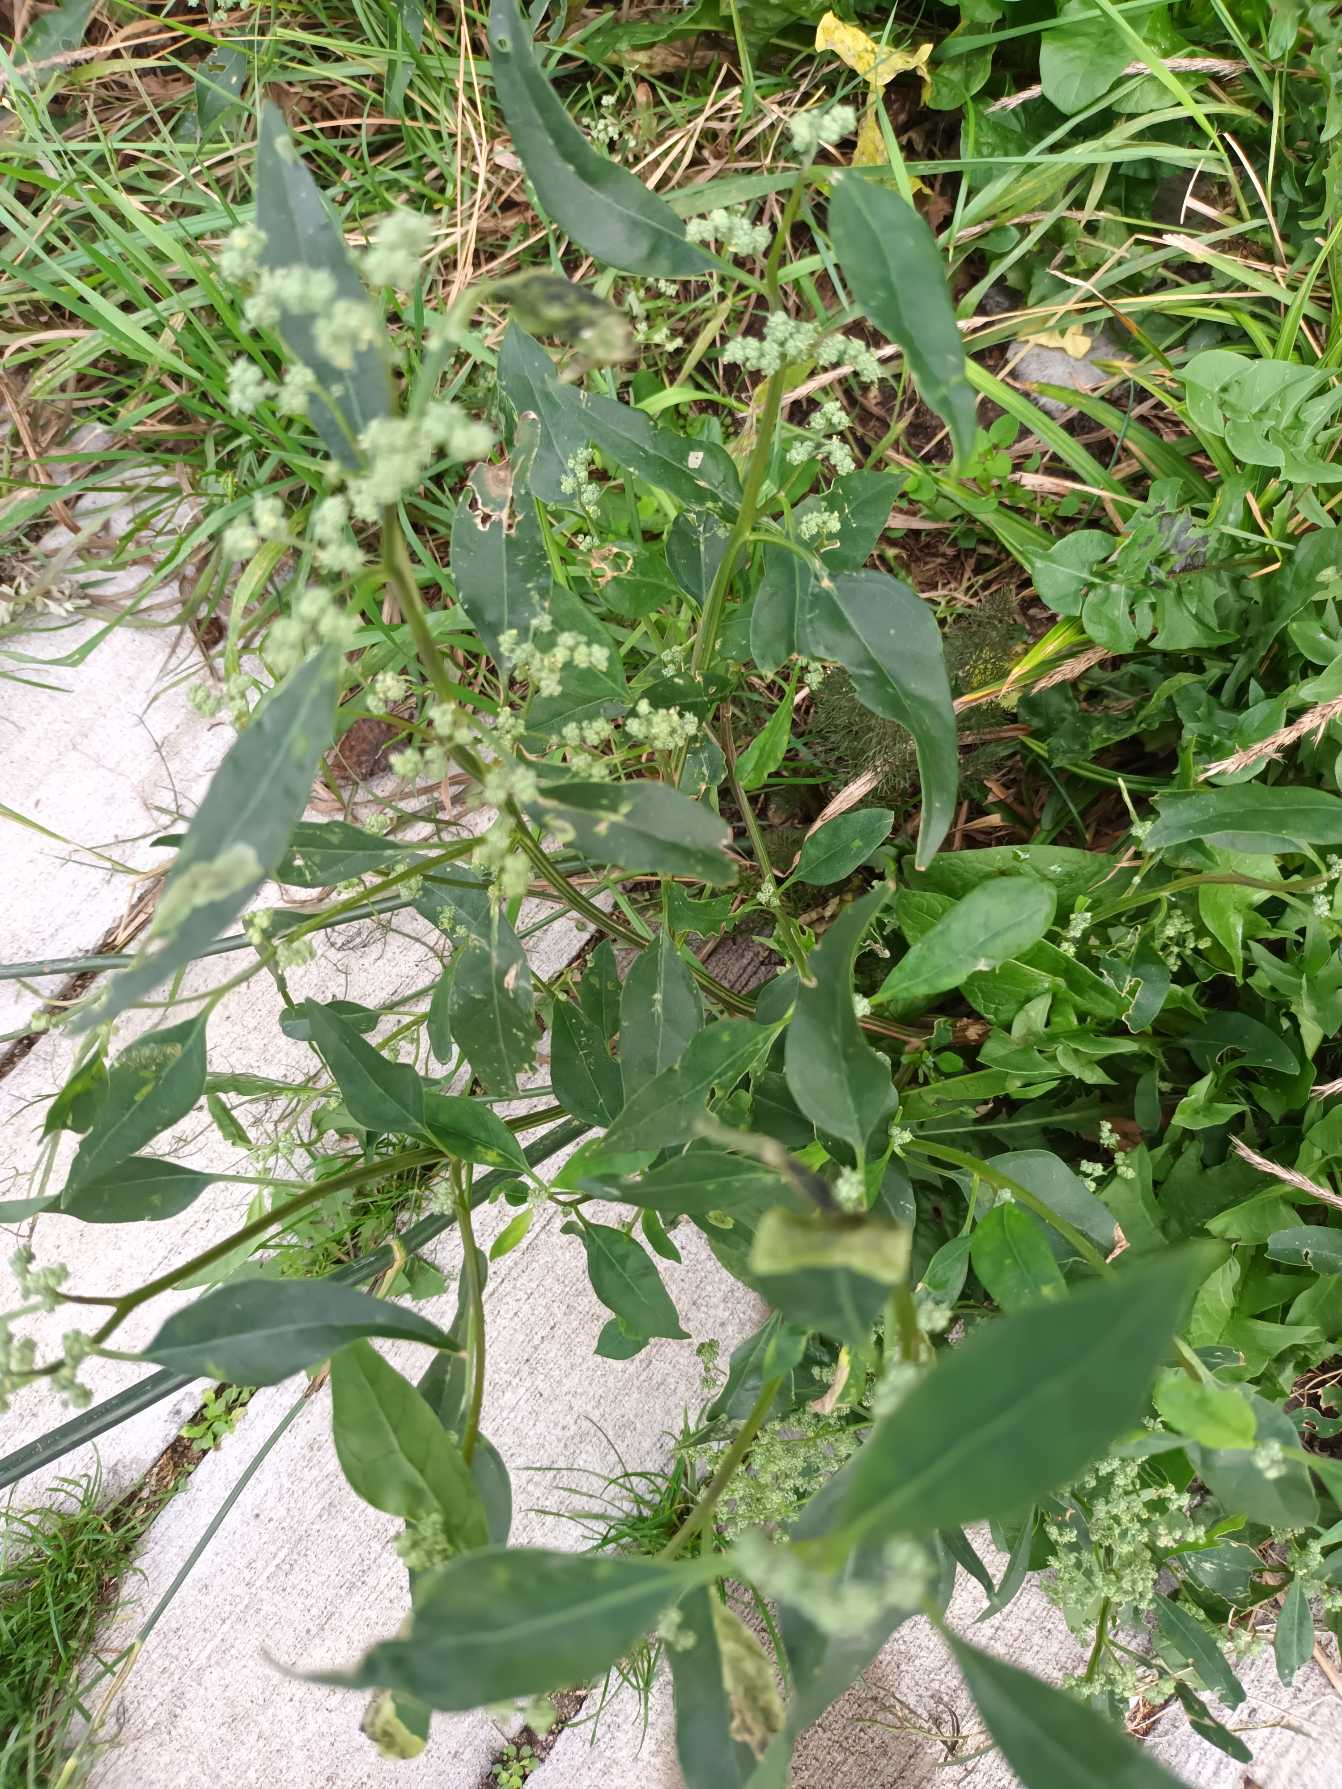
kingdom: Plantae
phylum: Tracheophyta
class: Magnoliopsida
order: Caryophyllales
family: Amaranthaceae
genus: Chenopodium
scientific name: Chenopodium pratericola
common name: Finbladet gåsefod
